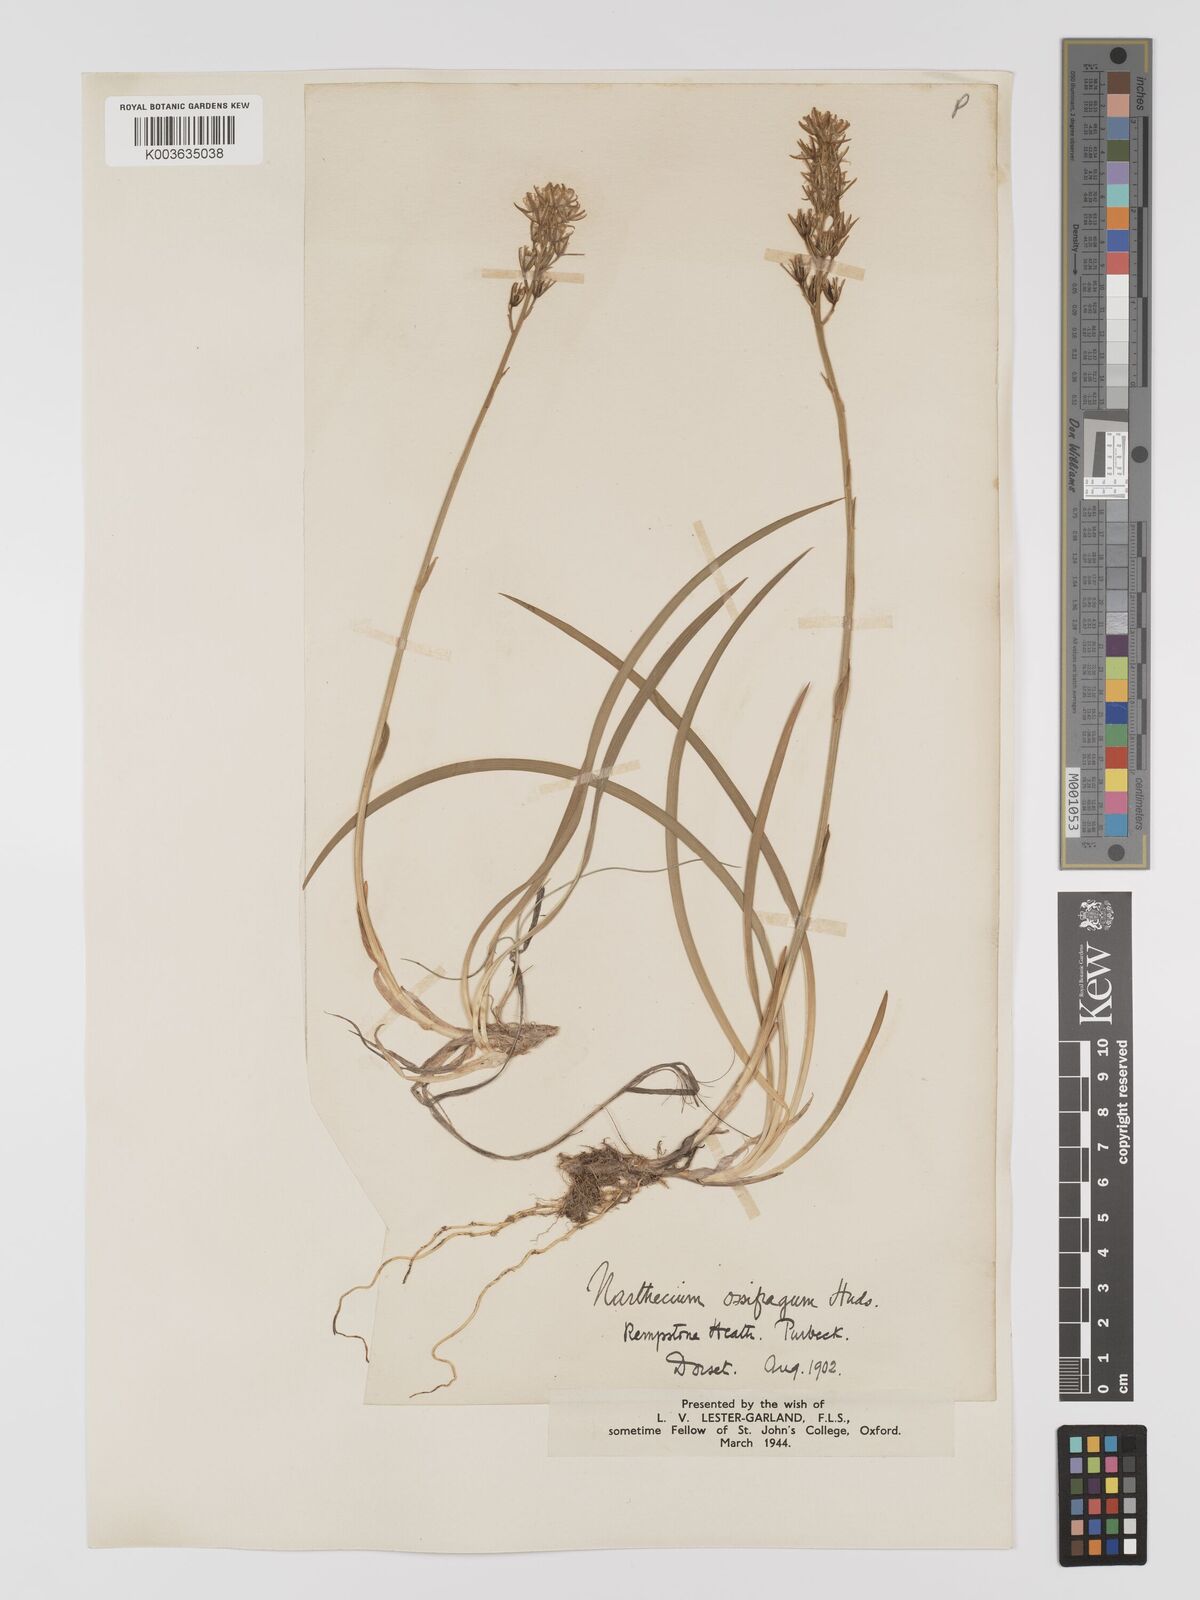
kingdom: Plantae
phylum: Tracheophyta
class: Liliopsida
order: Dioscoreales
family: Nartheciaceae
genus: Narthecium
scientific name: Narthecium
